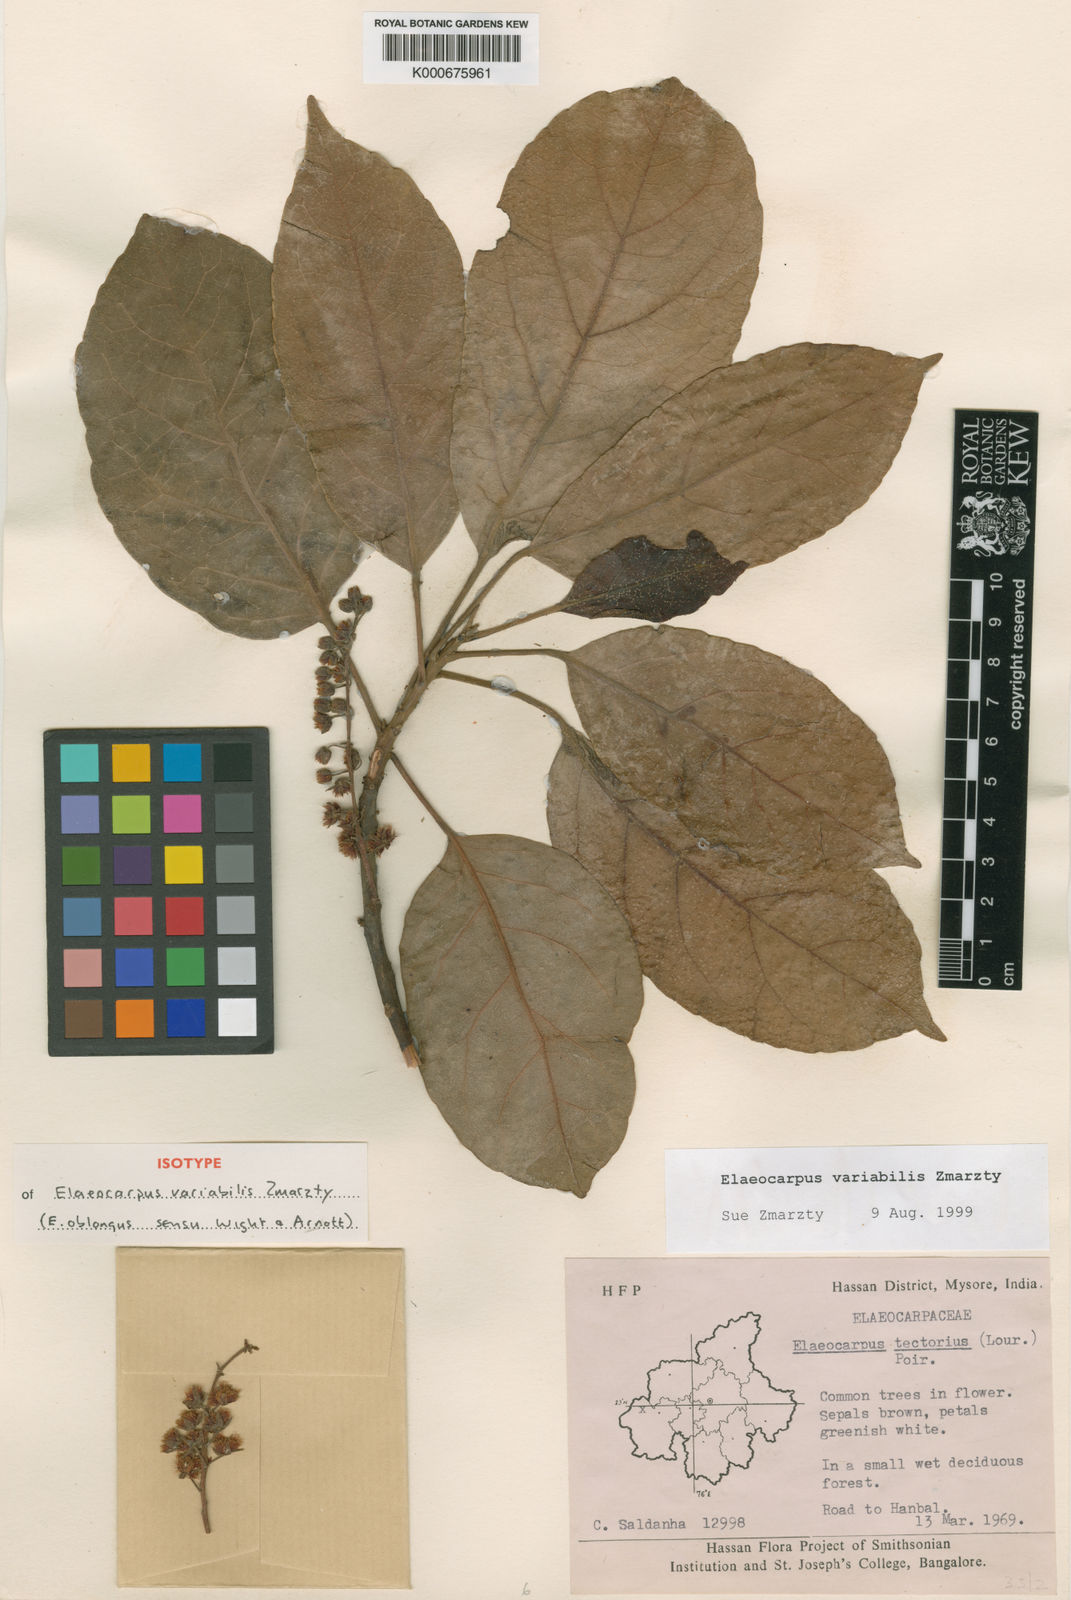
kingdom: Plantae
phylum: Tracheophyta
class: Magnoliopsida
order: Oxalidales
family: Elaeocarpaceae
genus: Elaeocarpus
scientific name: Elaeocarpus variabilis
